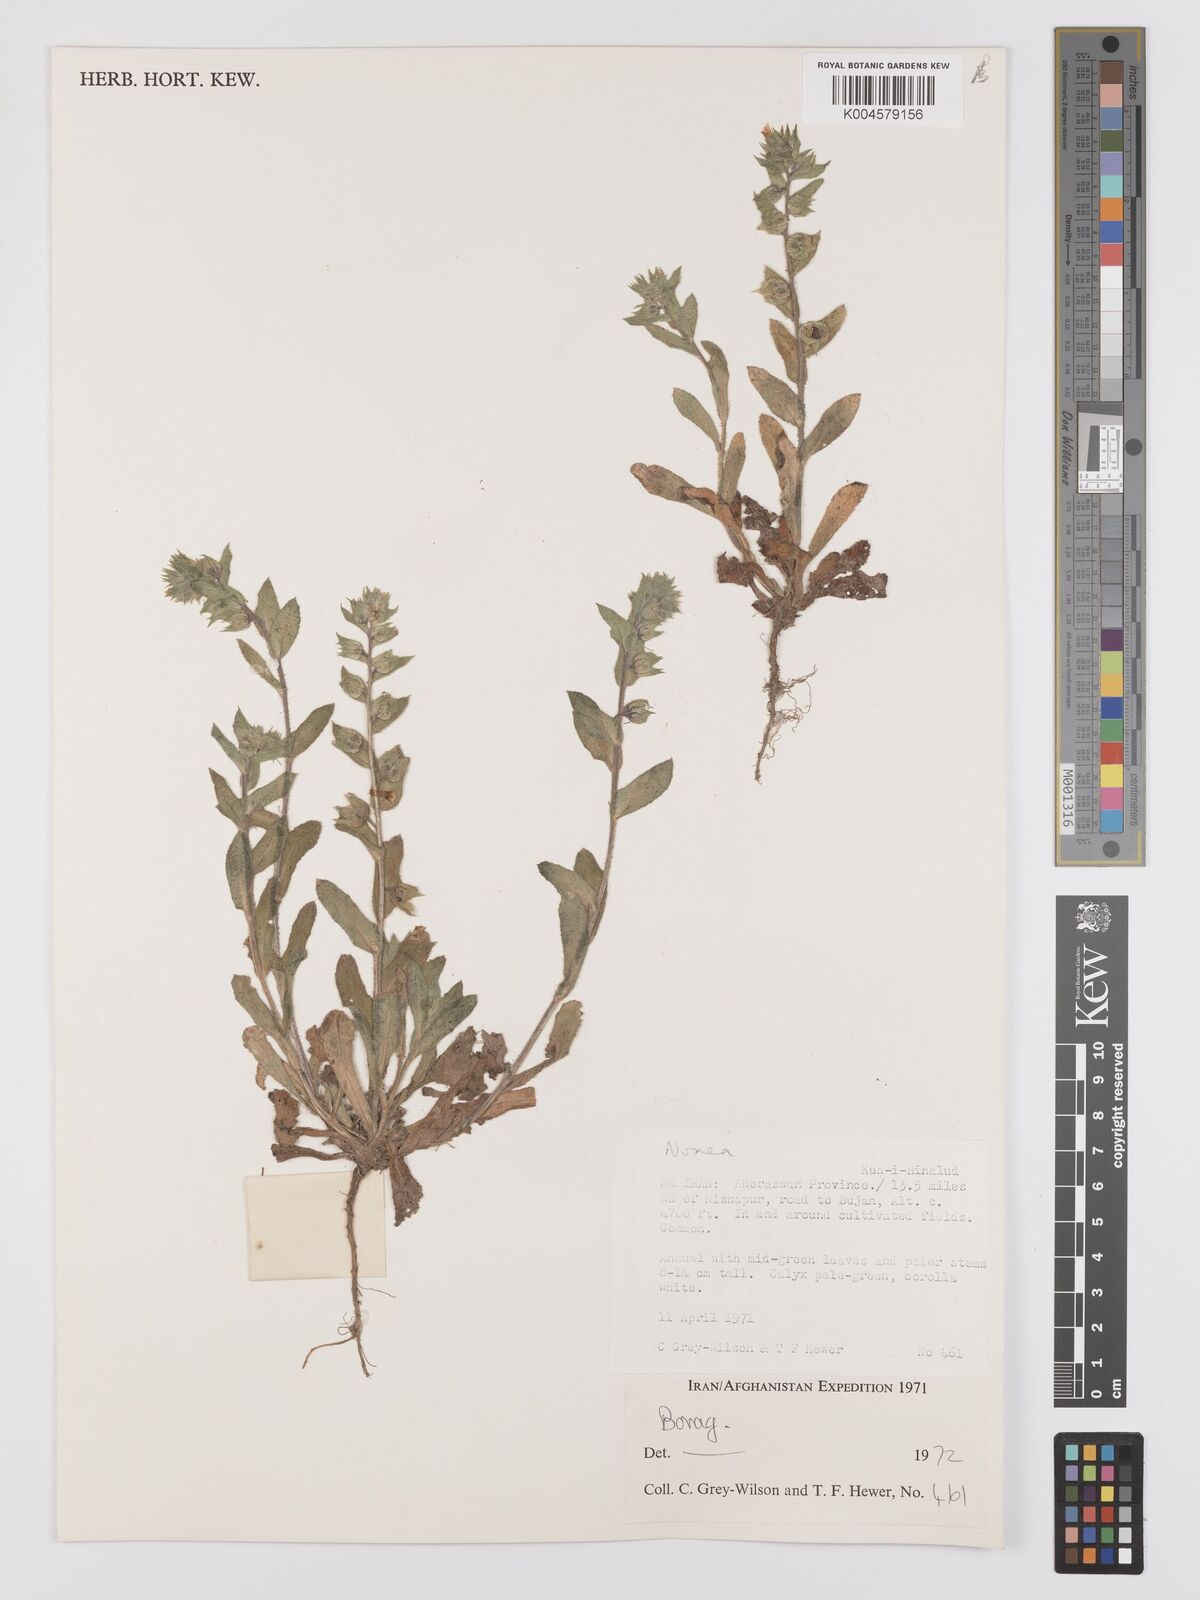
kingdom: Plantae
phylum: Tracheophyta
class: Magnoliopsida
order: Boraginales
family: Boraginaceae
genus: Nonea
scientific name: Nonea
